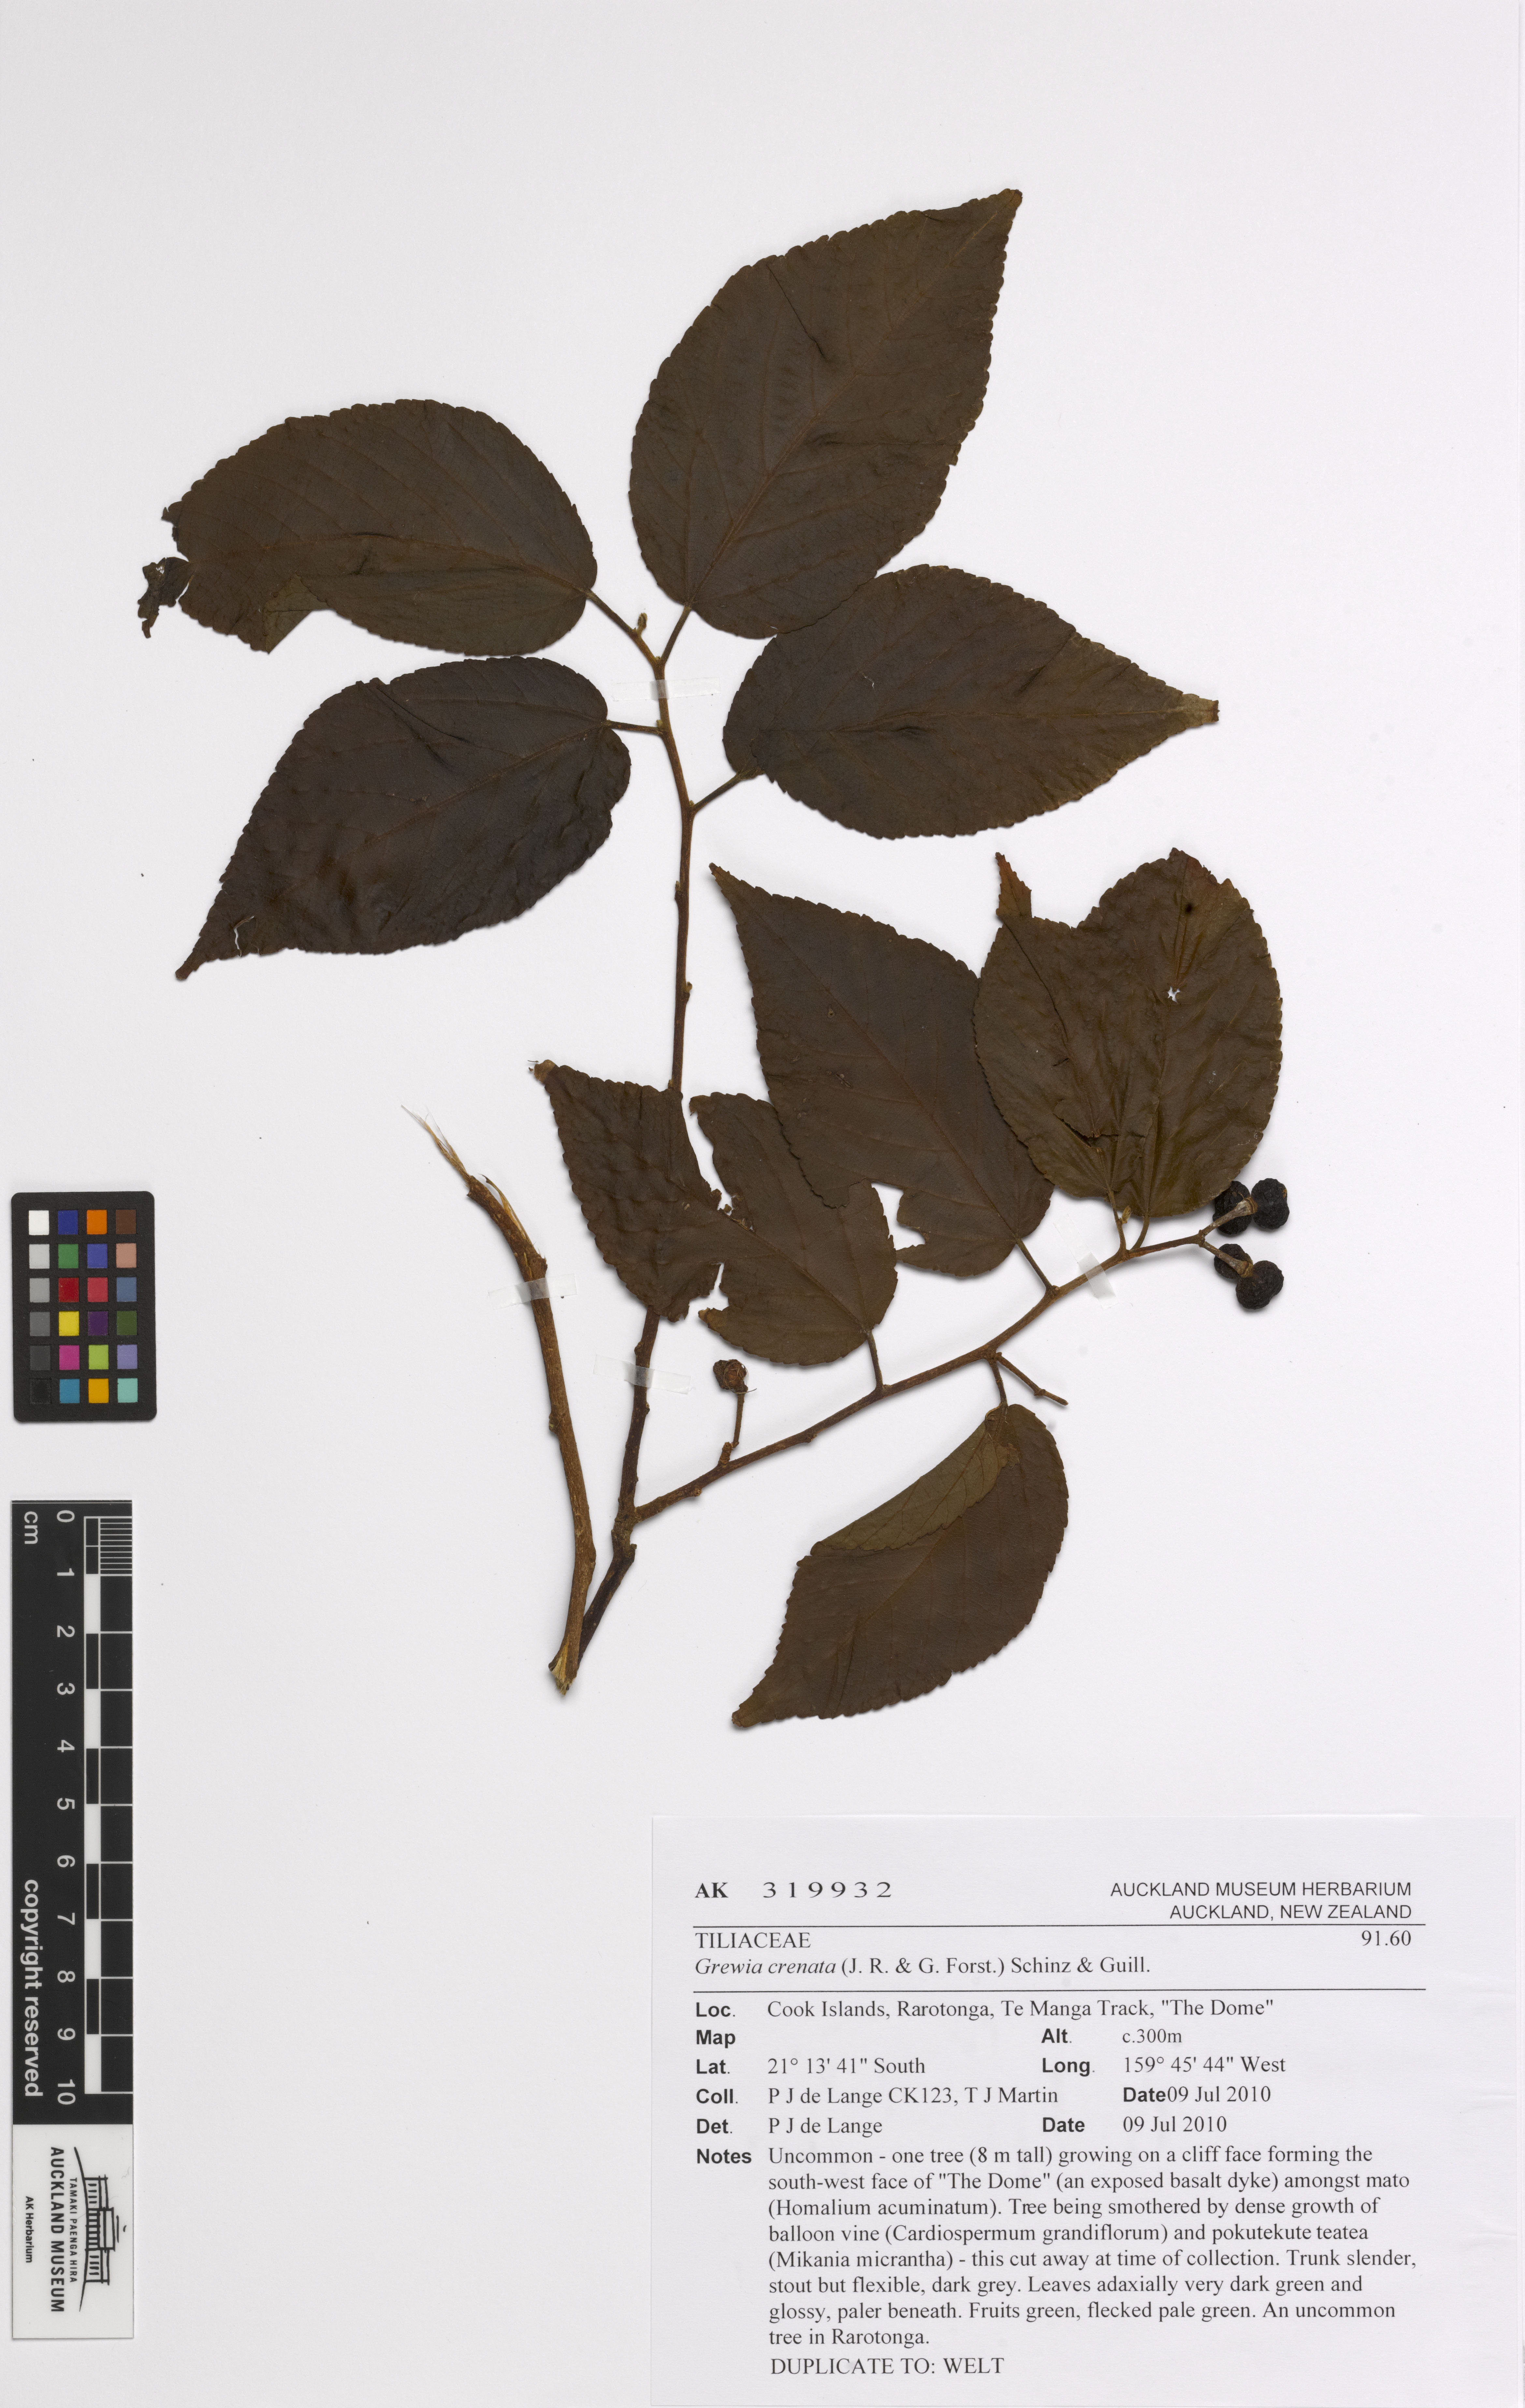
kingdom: Plantae
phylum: Tracheophyta
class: Magnoliopsida
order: Malvales
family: Malvaceae
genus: Grewia
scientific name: Grewia crenata
